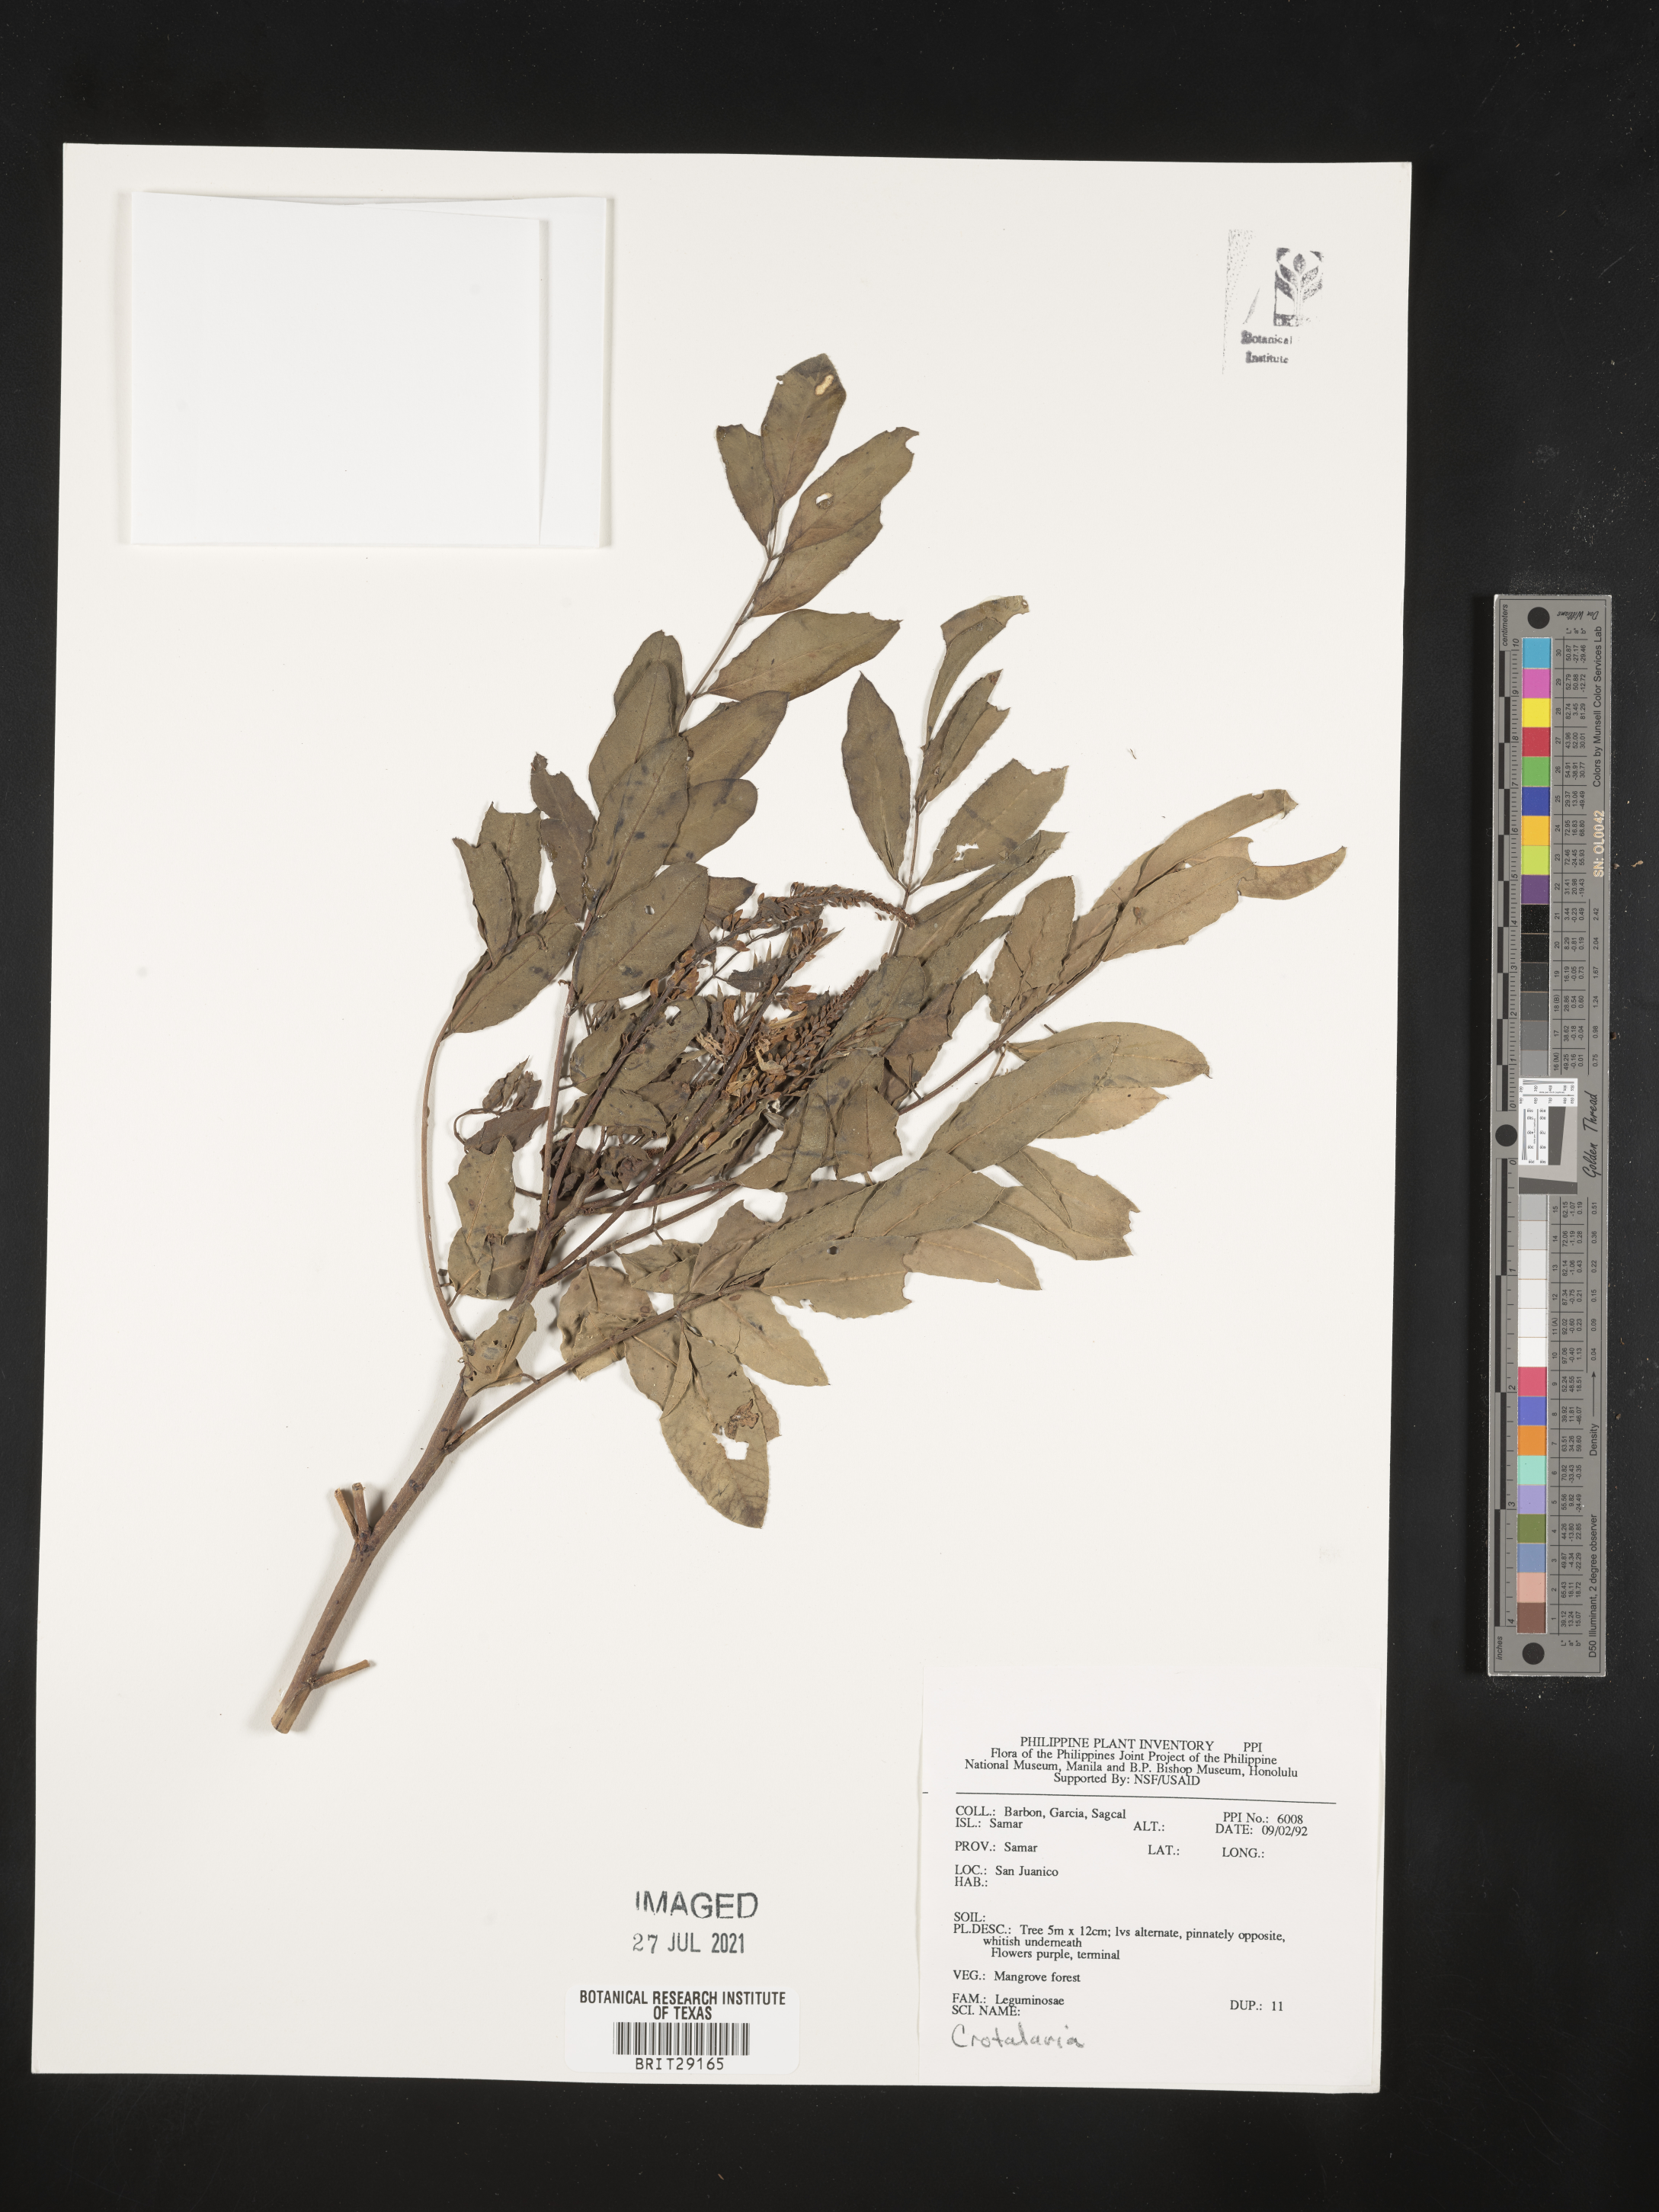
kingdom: Plantae
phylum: Tracheophyta
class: Magnoliopsida
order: Fabales
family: Fabaceae
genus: Crotalaria
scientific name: Crotalaria
